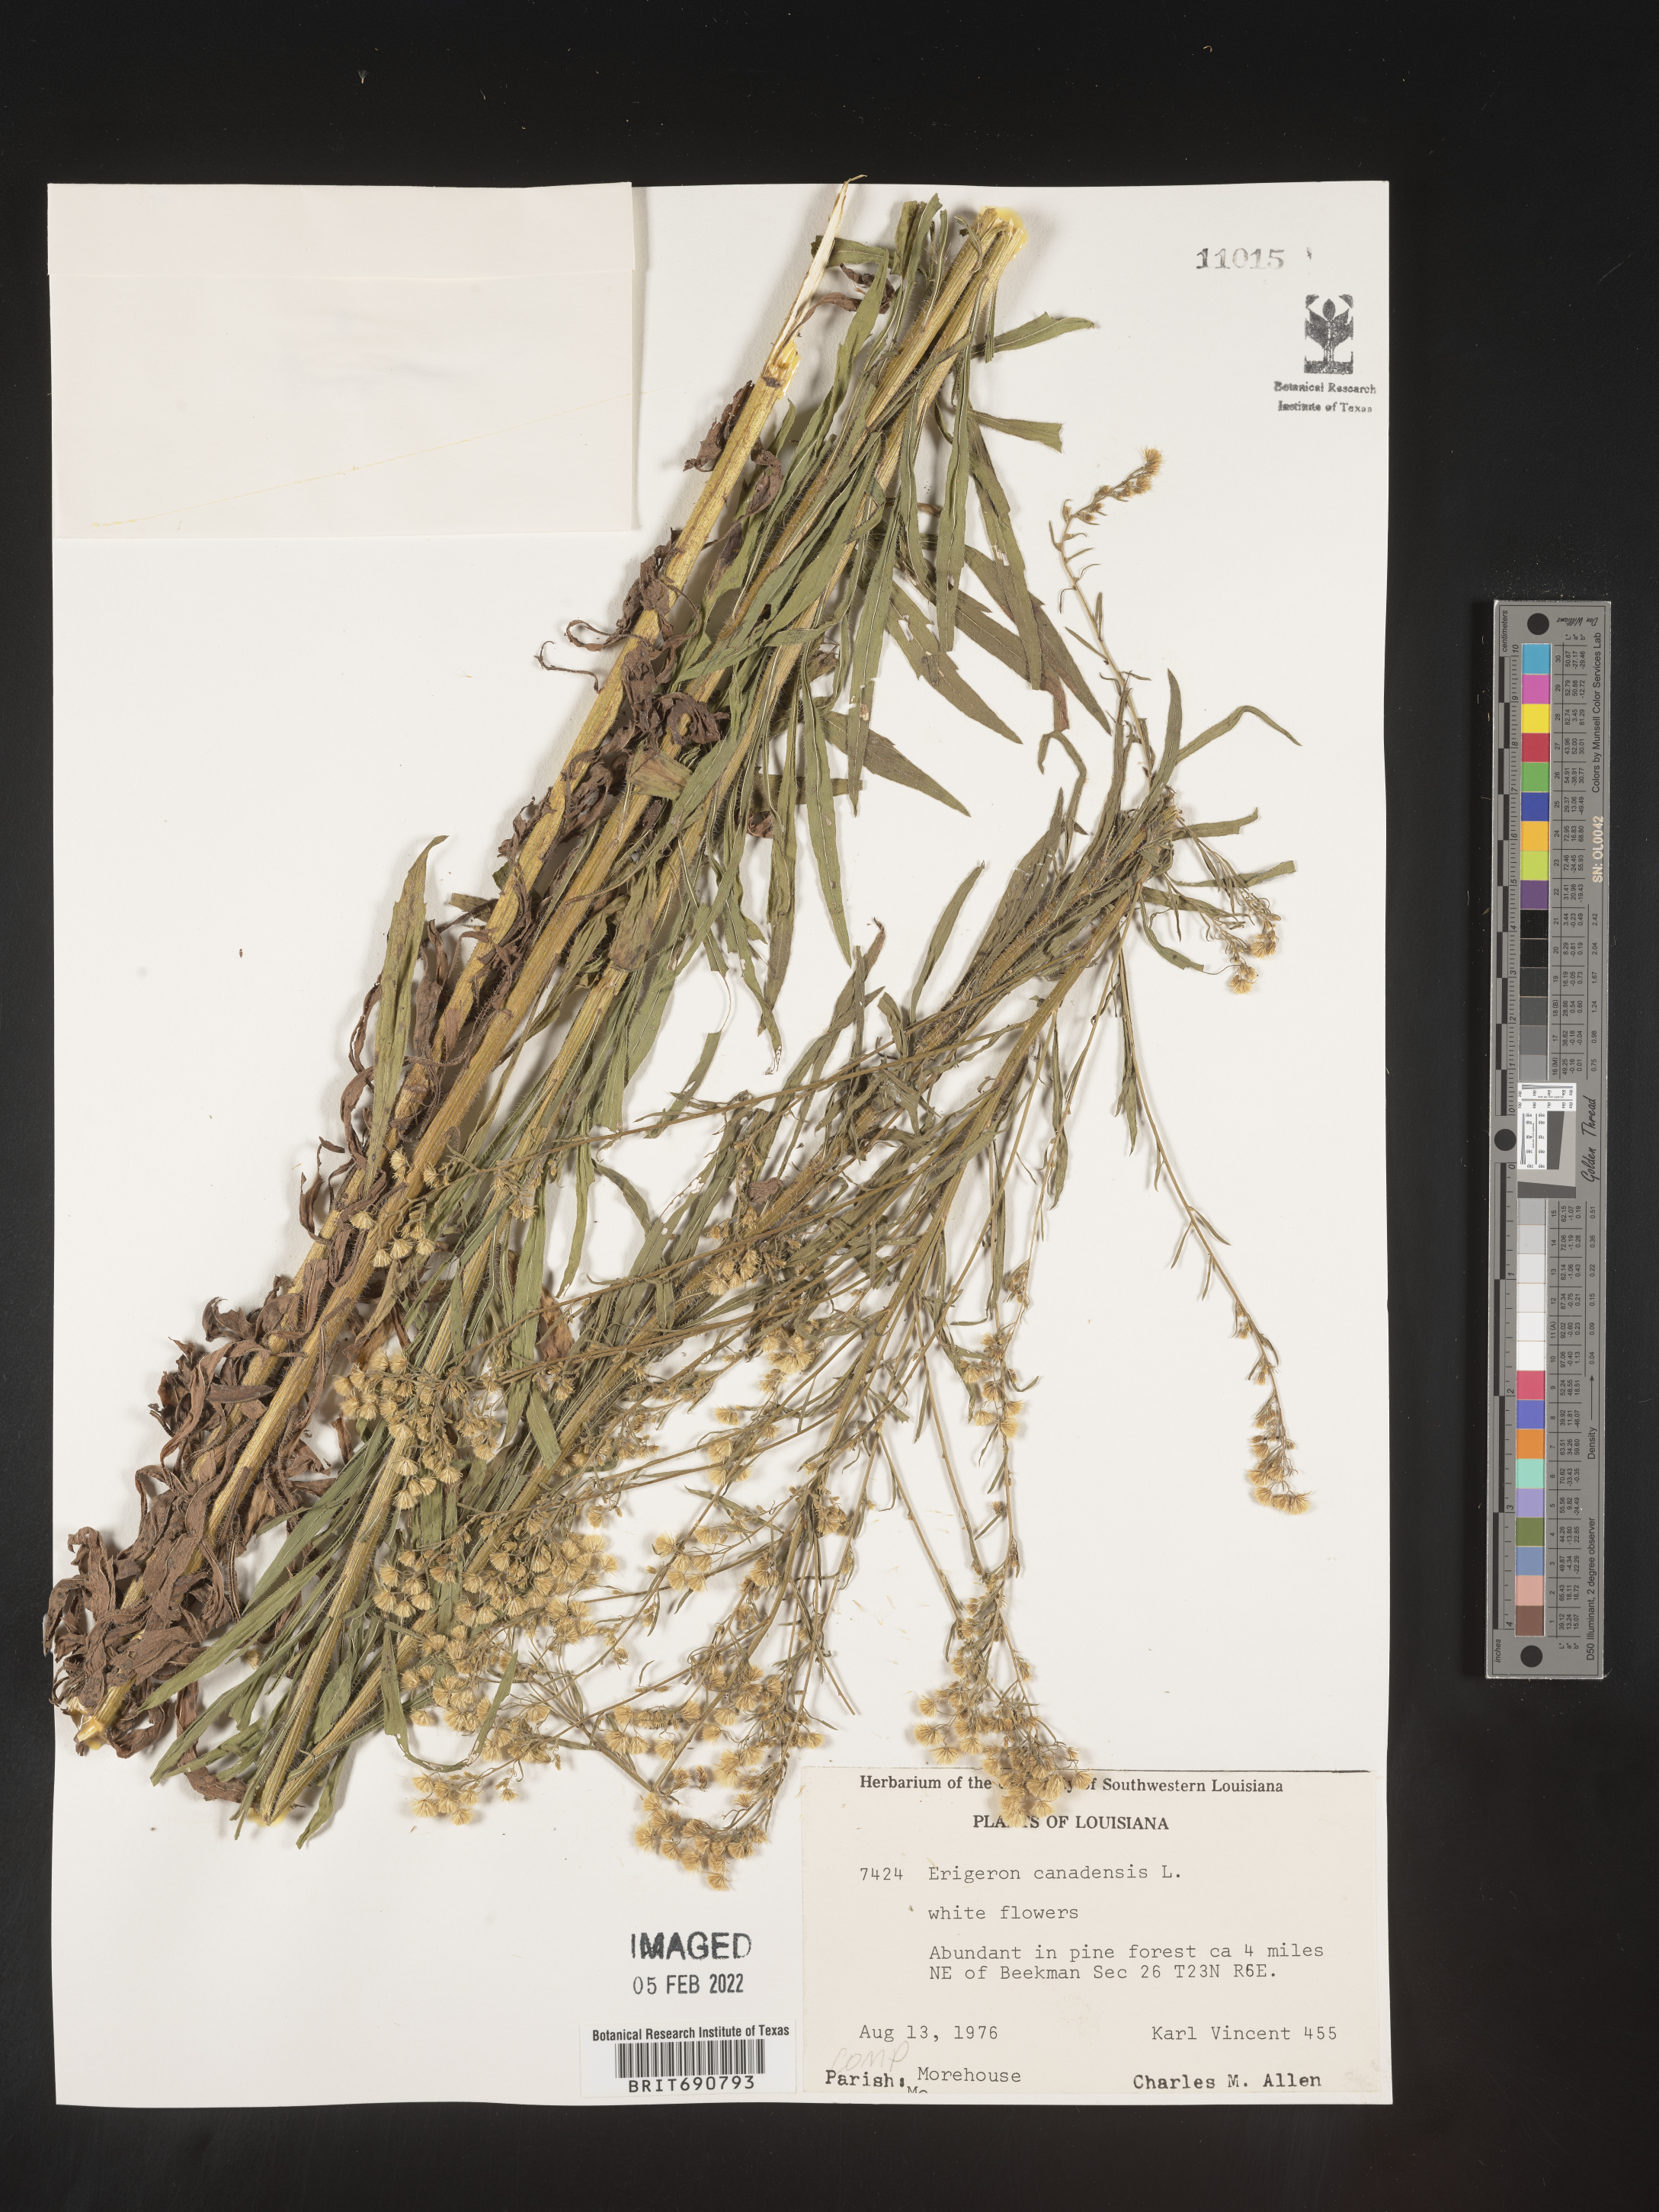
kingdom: Plantae
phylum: Tracheophyta
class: Magnoliopsida
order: Asterales
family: Asteraceae
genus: Erigeron
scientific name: Erigeron canadensis
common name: Canadian fleabane
